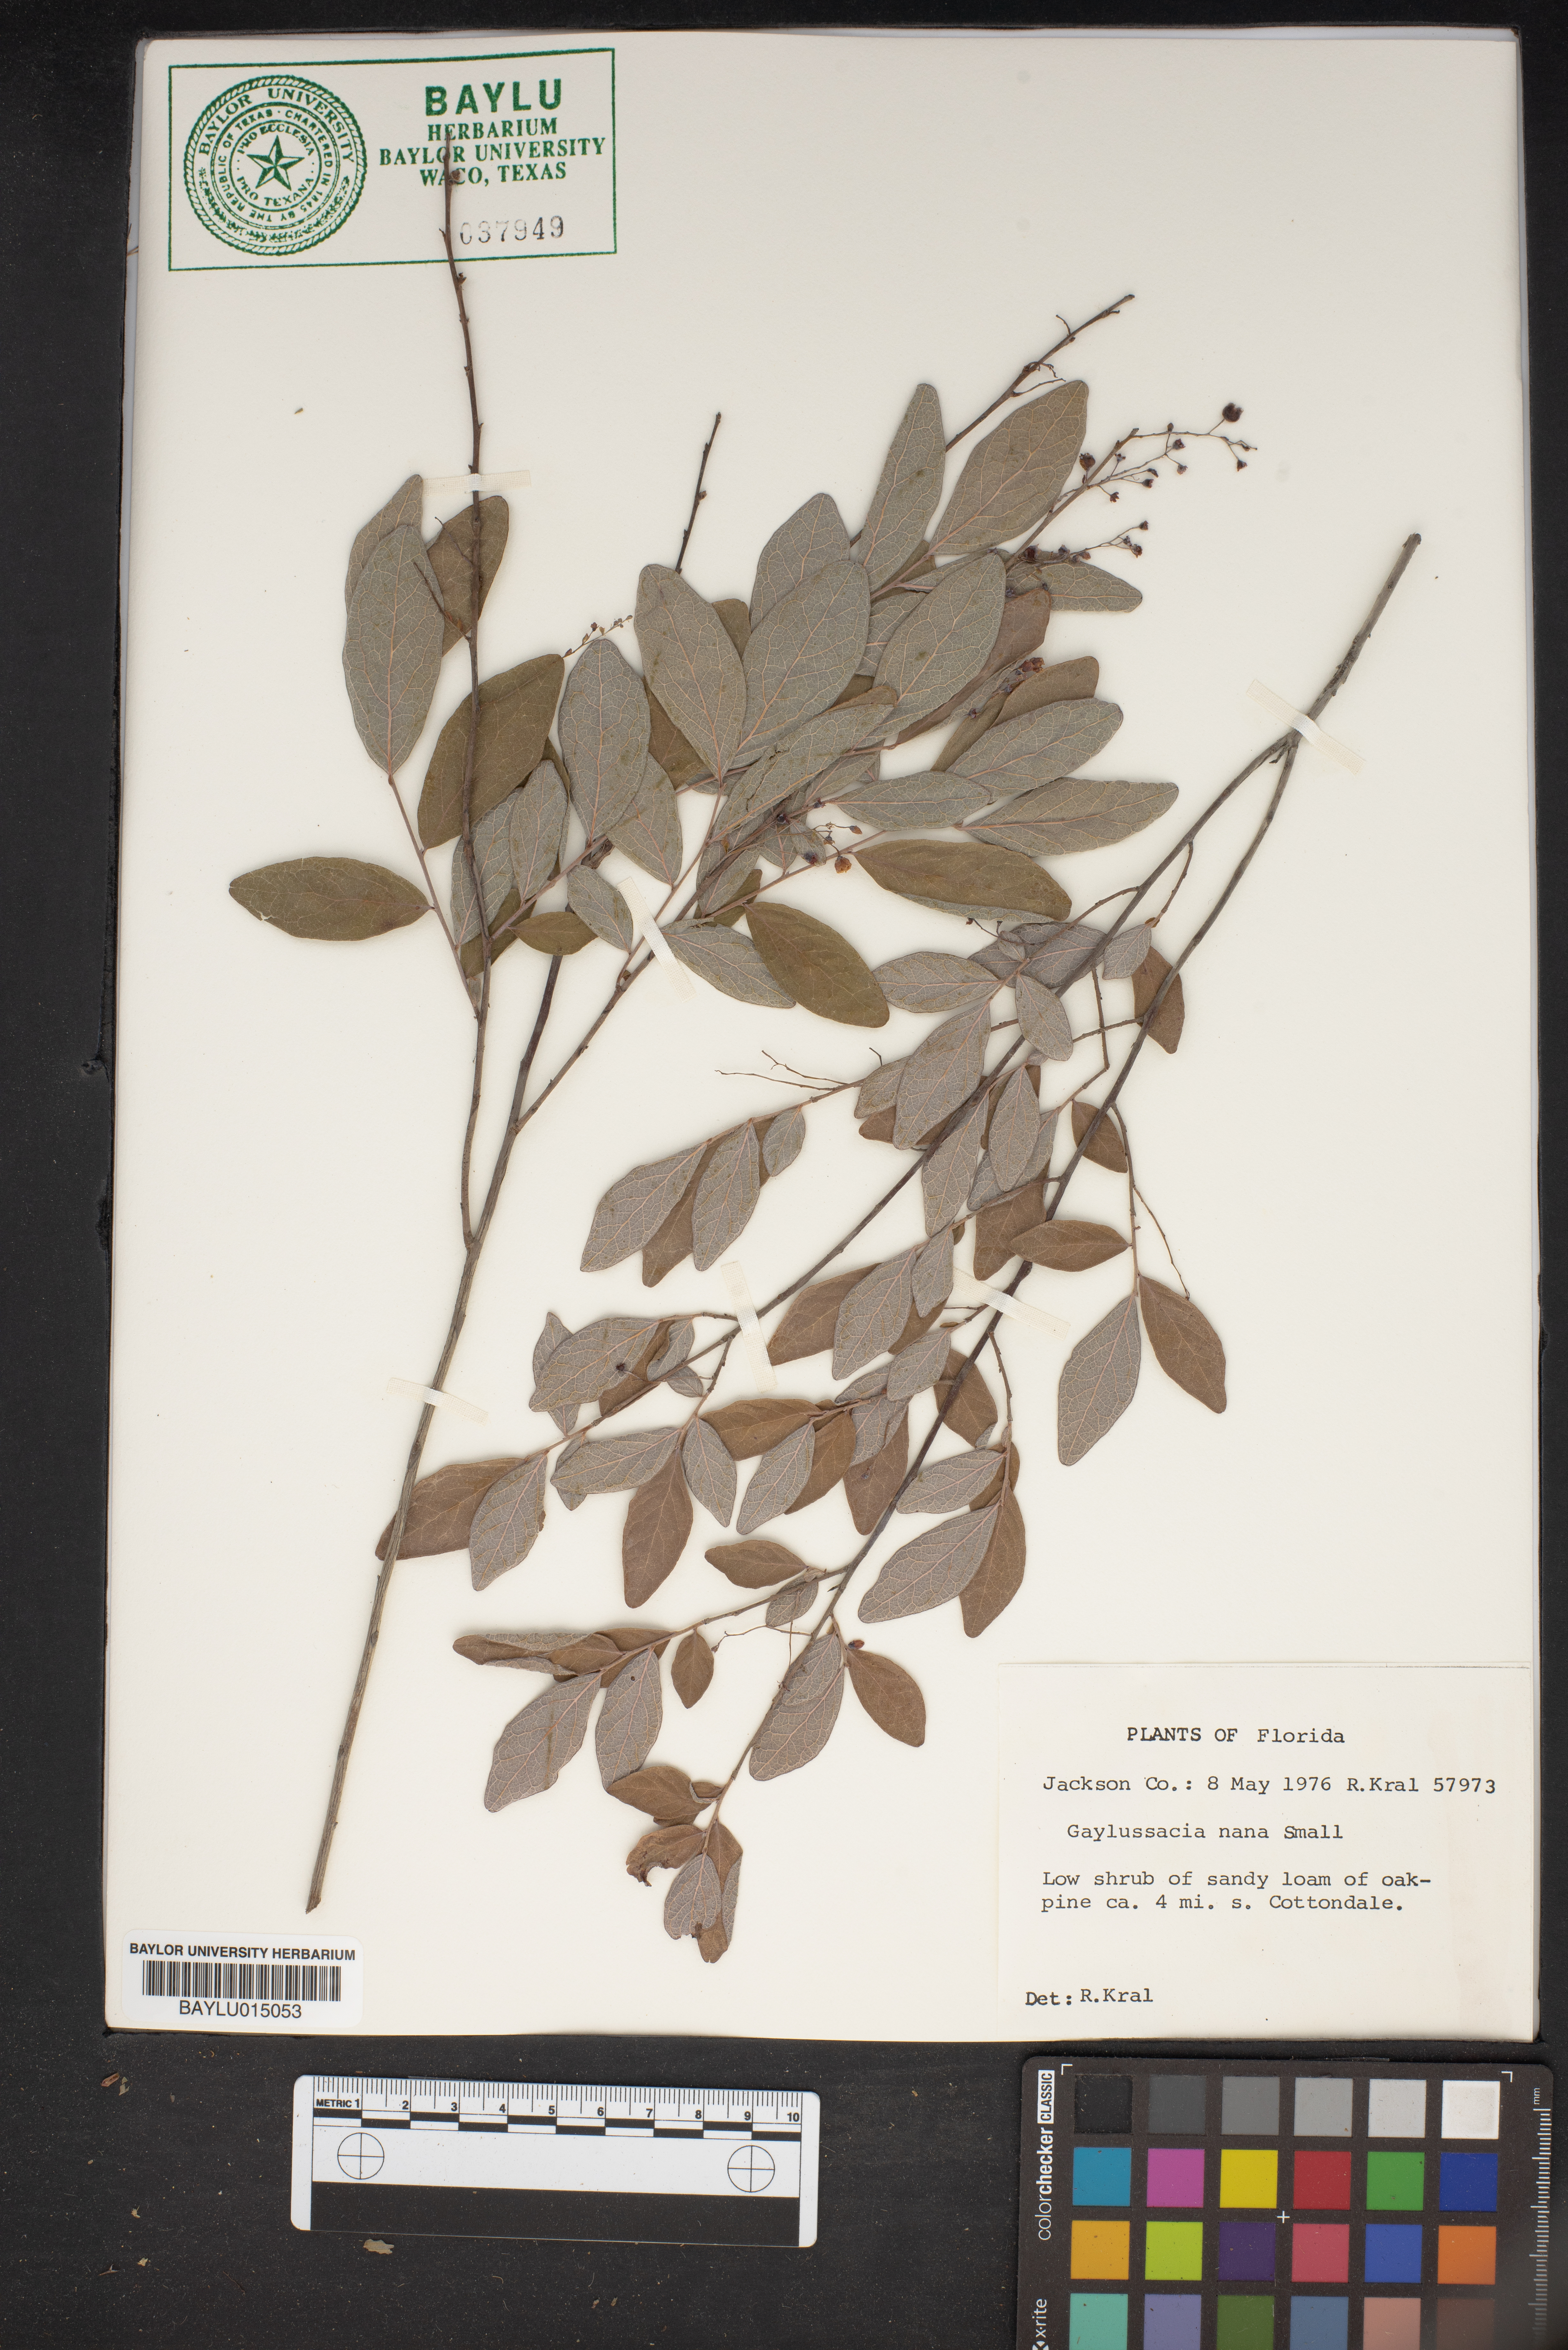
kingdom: Plantae
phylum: Tracheophyta
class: Magnoliopsida
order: Ericales
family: Ericaceae
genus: Gaylussacia
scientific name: Gaylussacia nana
